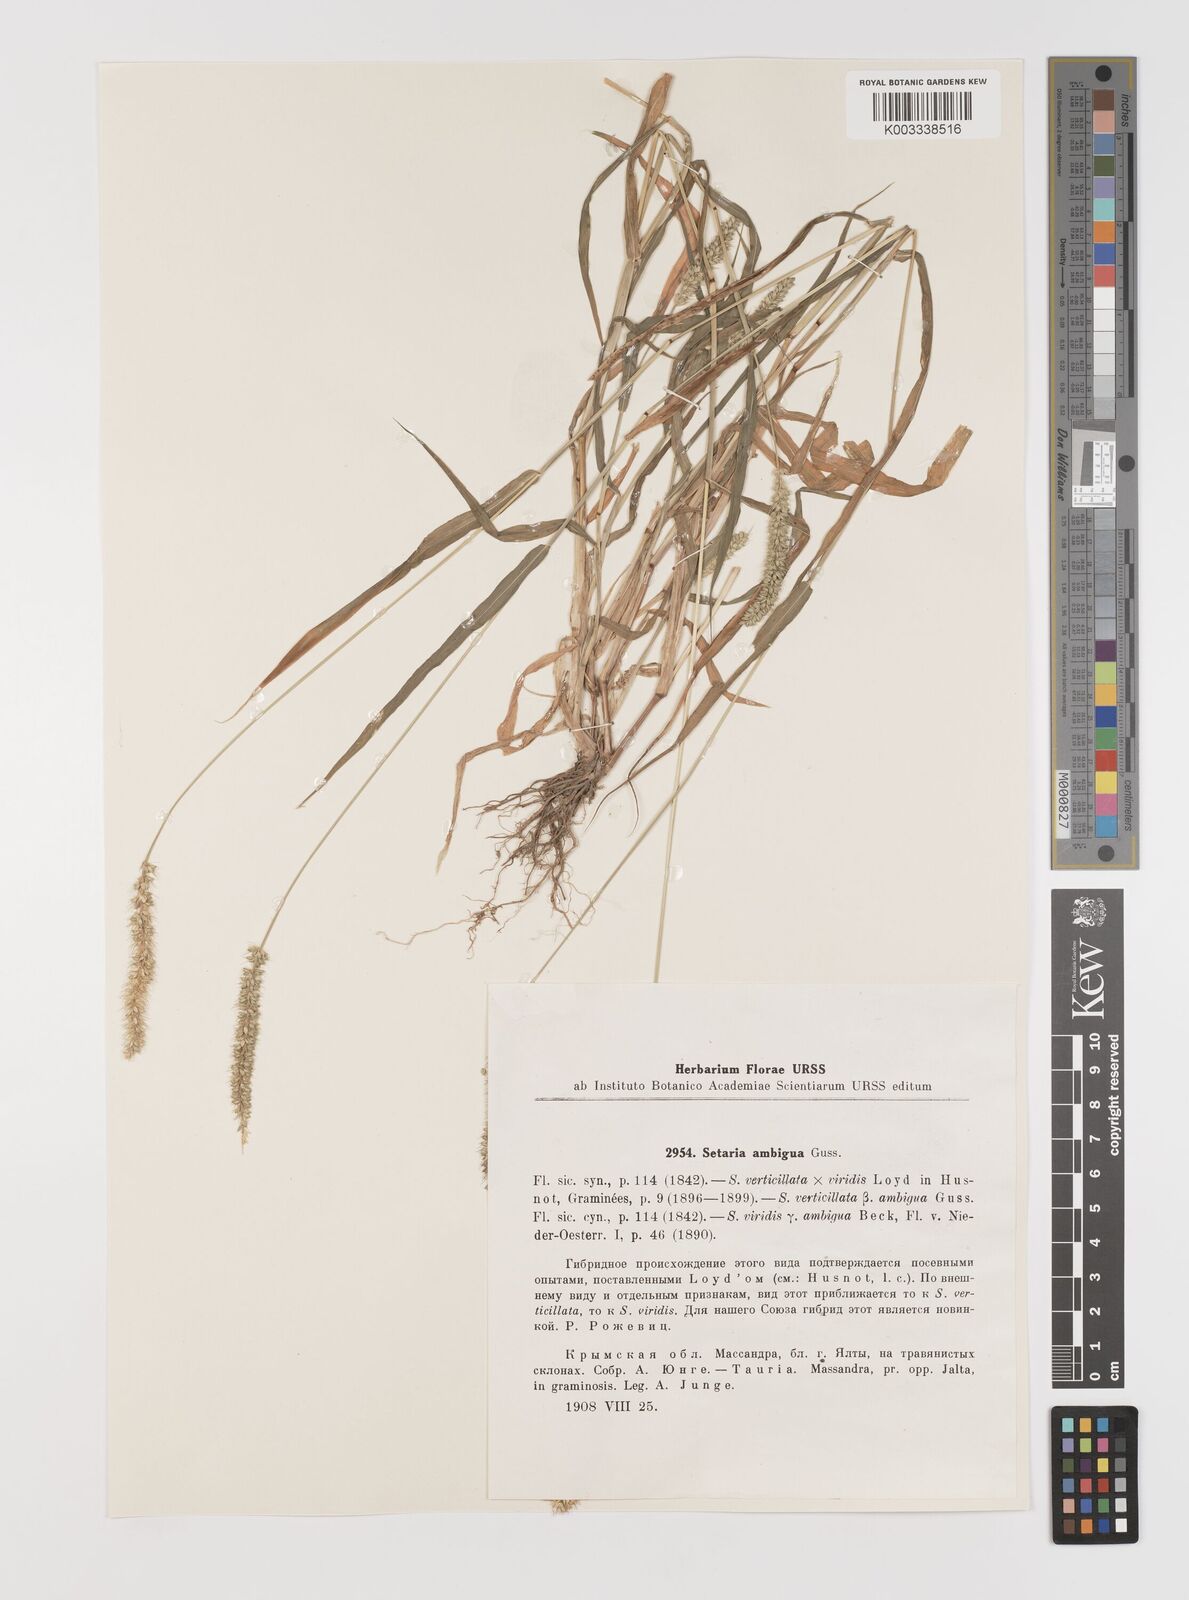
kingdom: Plantae
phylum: Tracheophyta
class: Liliopsida
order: Poales
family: Poaceae
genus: Setaria
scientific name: Setaria verticillata
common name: Hooked bristlegrass
